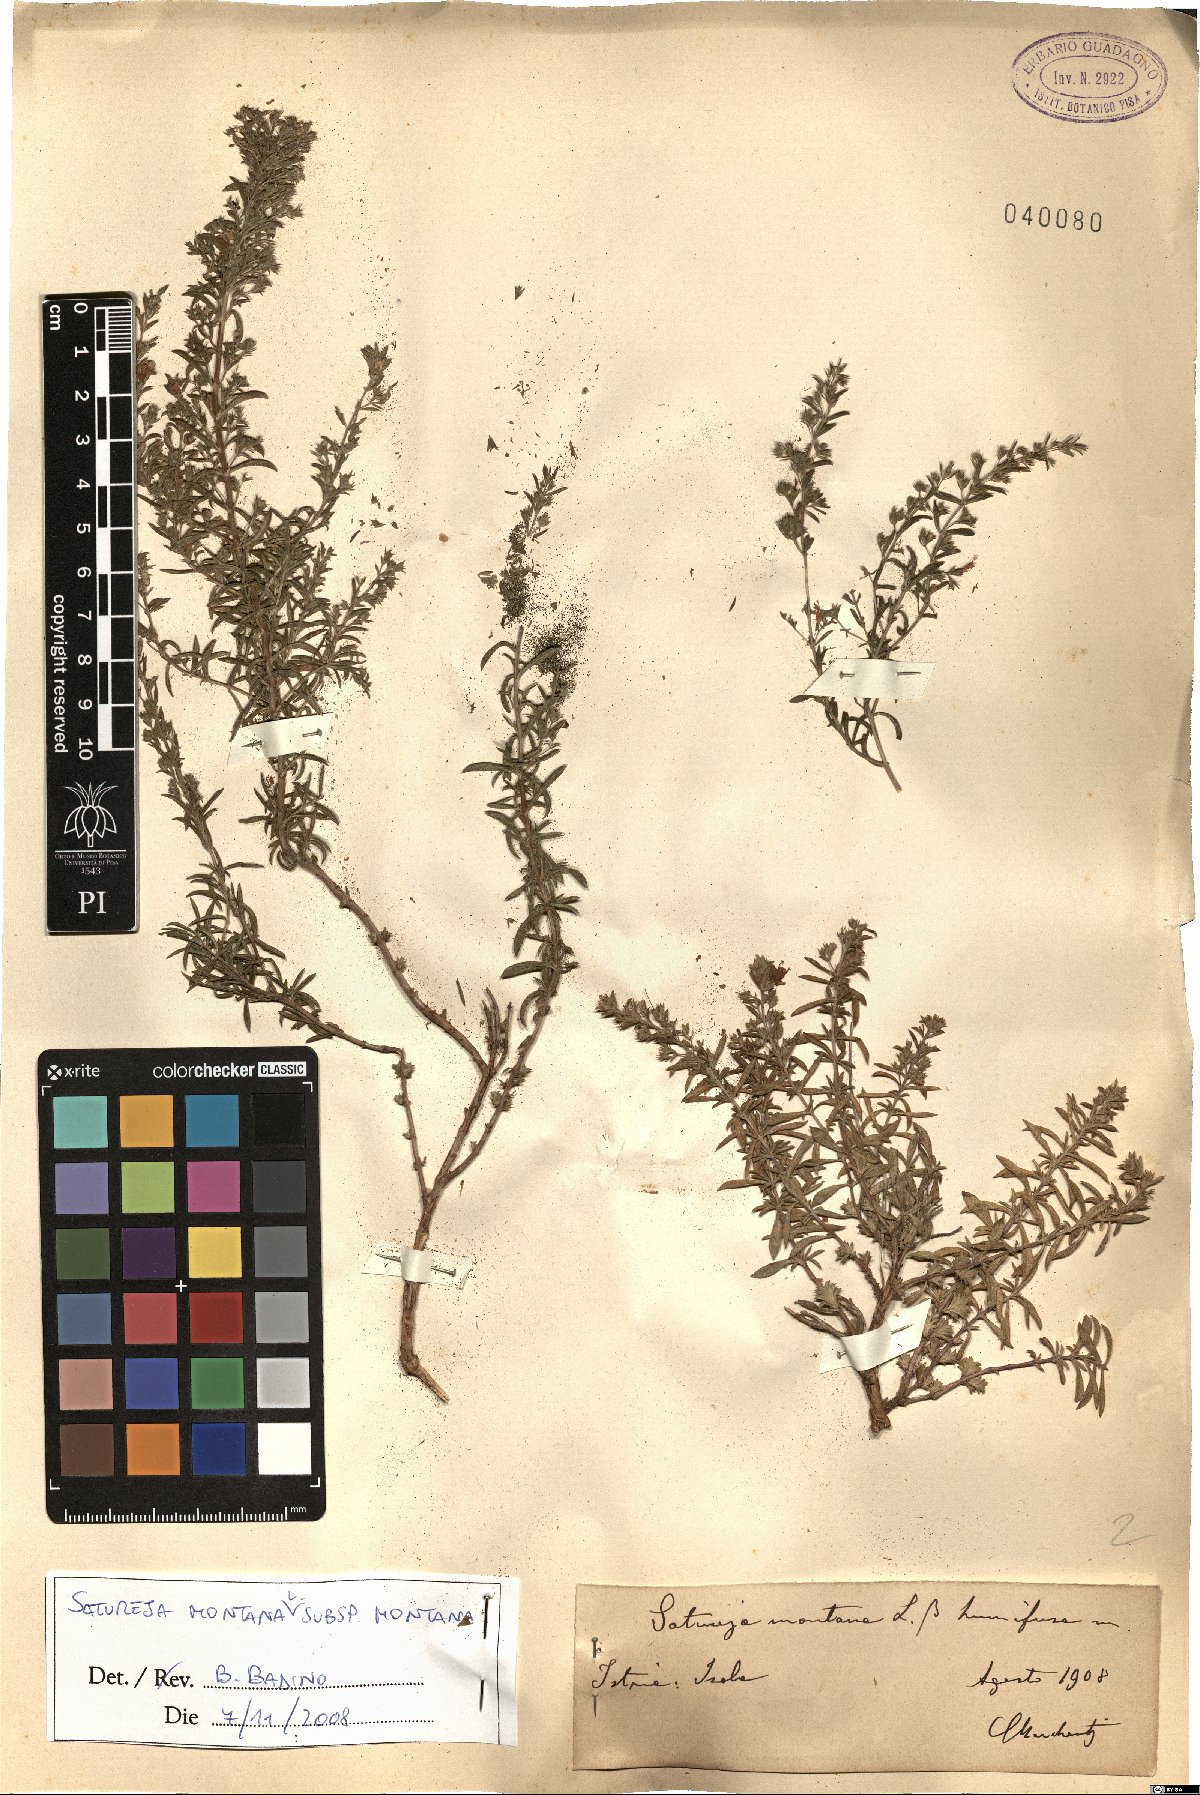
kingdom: Plantae
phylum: Tracheophyta
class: Magnoliopsida
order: Lamiales
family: Lamiaceae
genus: Satureja
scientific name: Satureja montana
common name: Winter savory
